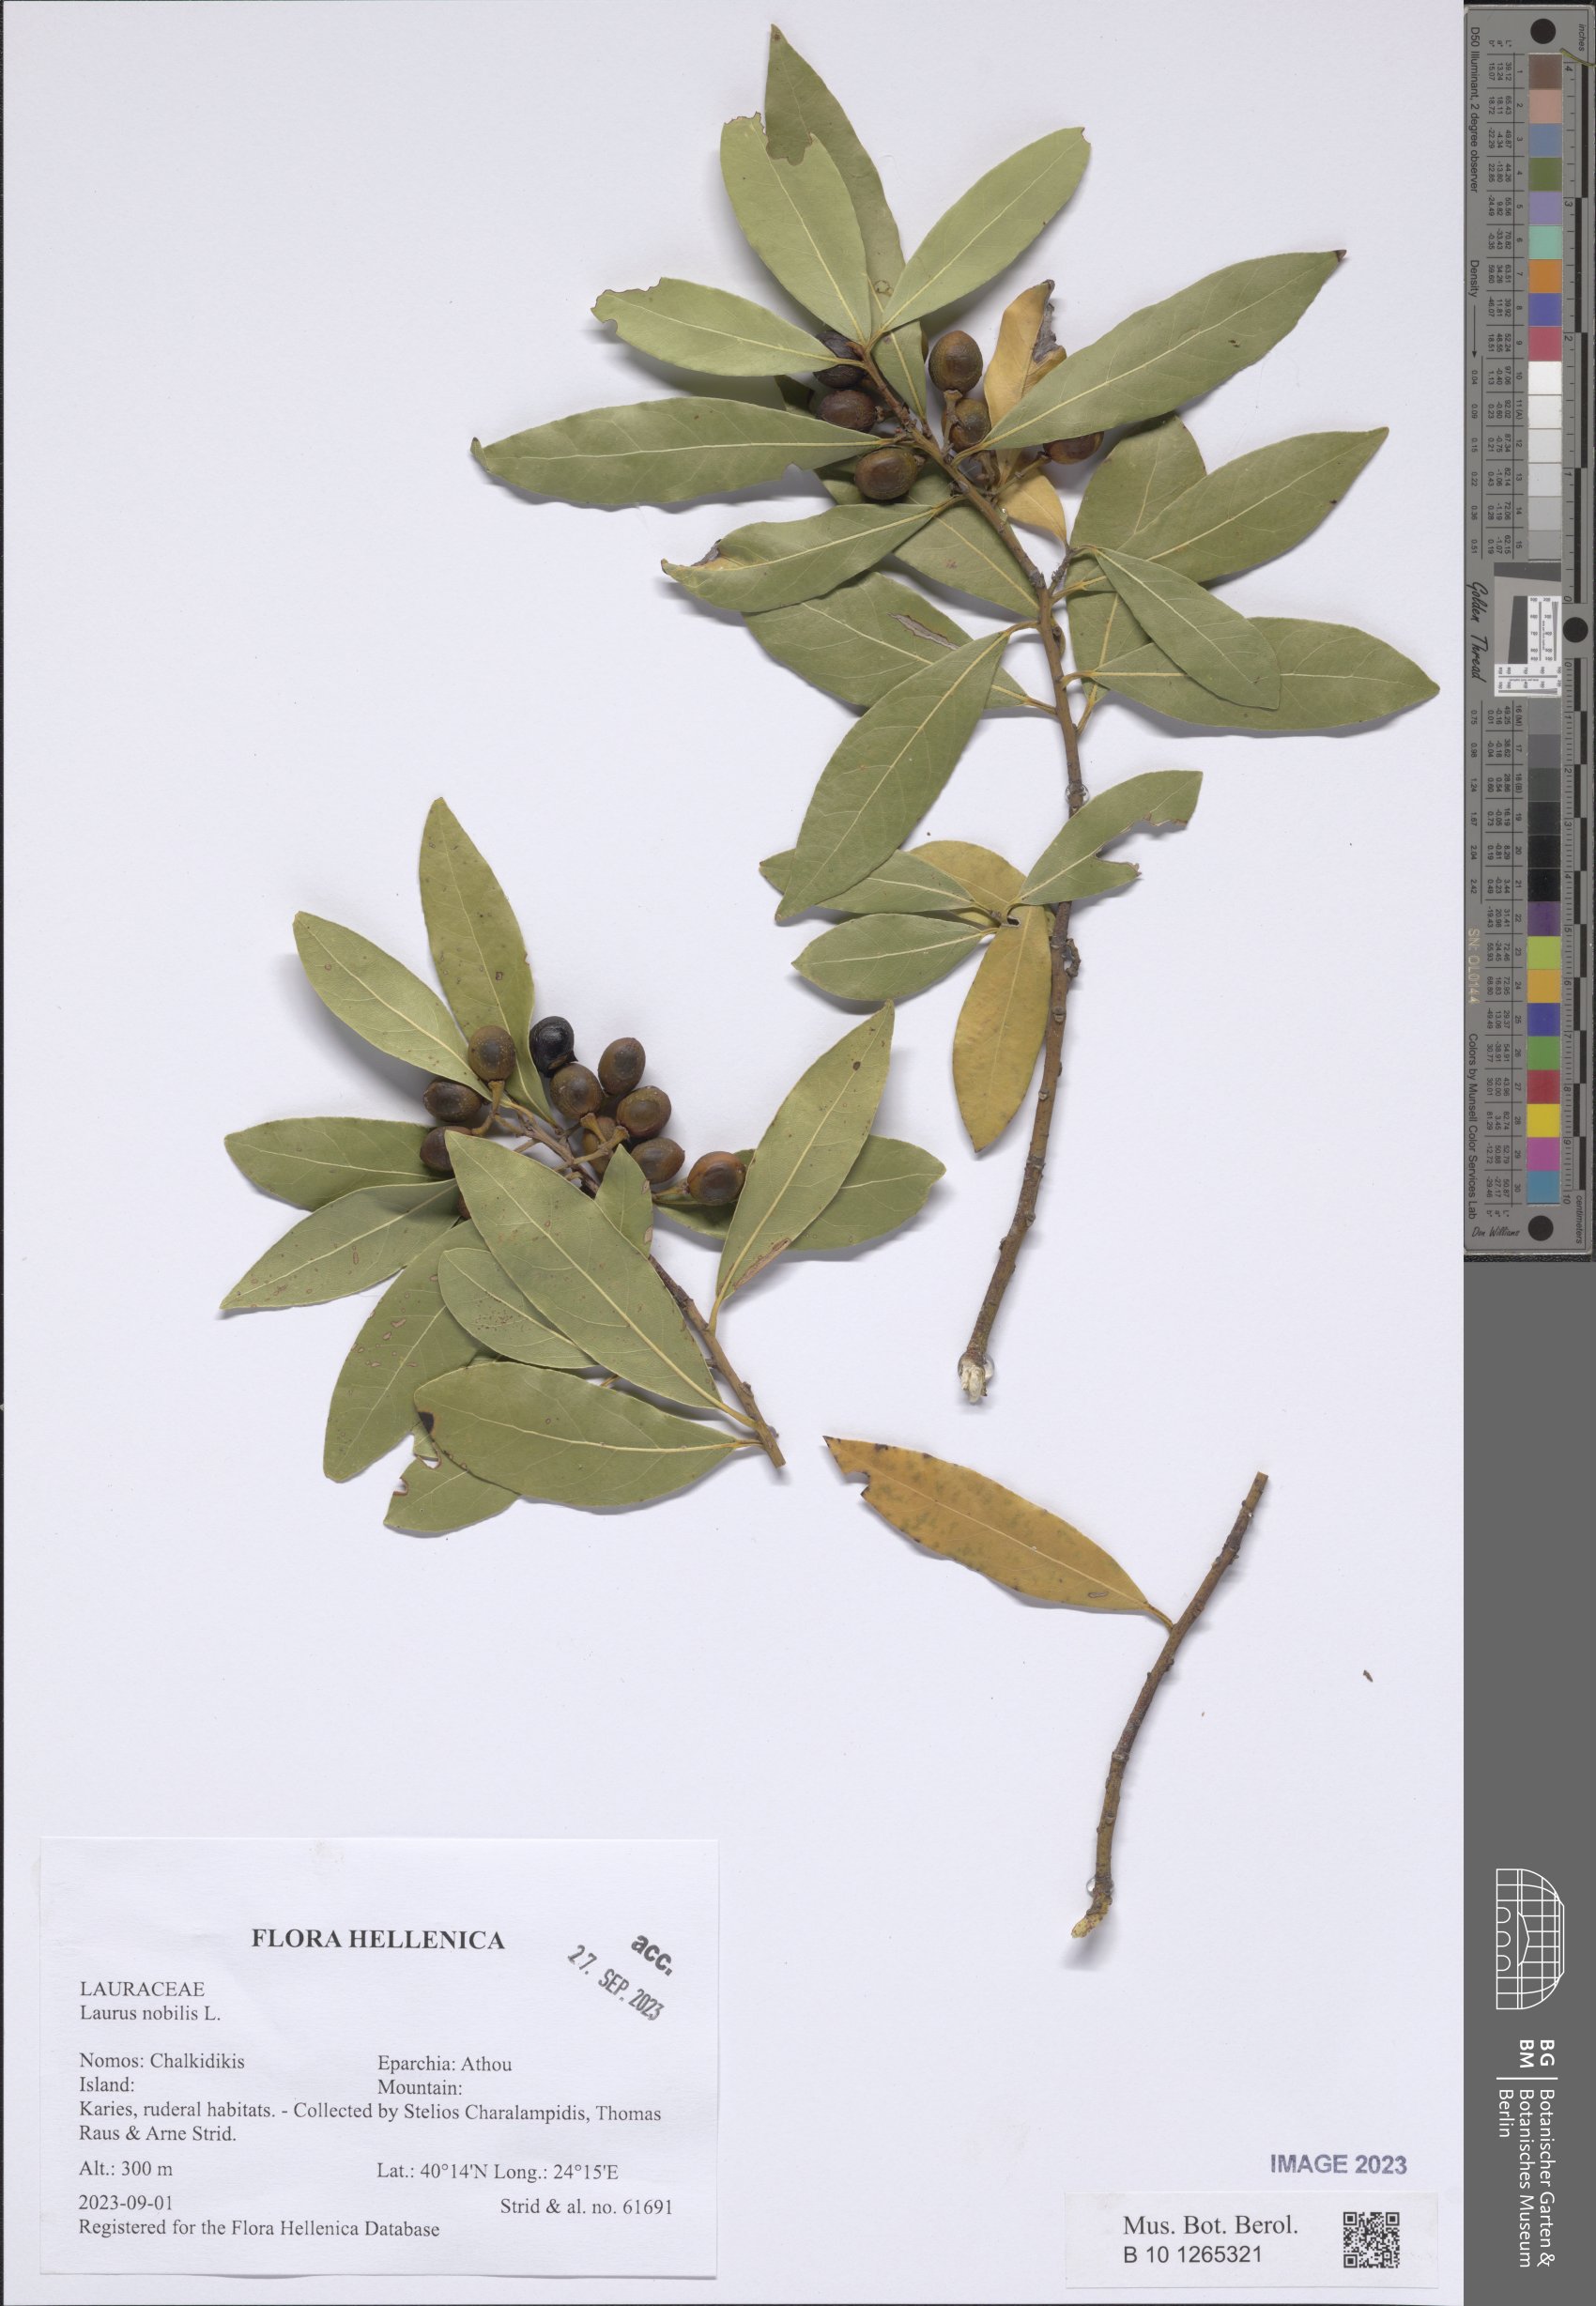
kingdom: Plantae
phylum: Tracheophyta
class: Magnoliopsida
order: Laurales
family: Lauraceae
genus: Laurus
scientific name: Laurus nobilis
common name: Bay
